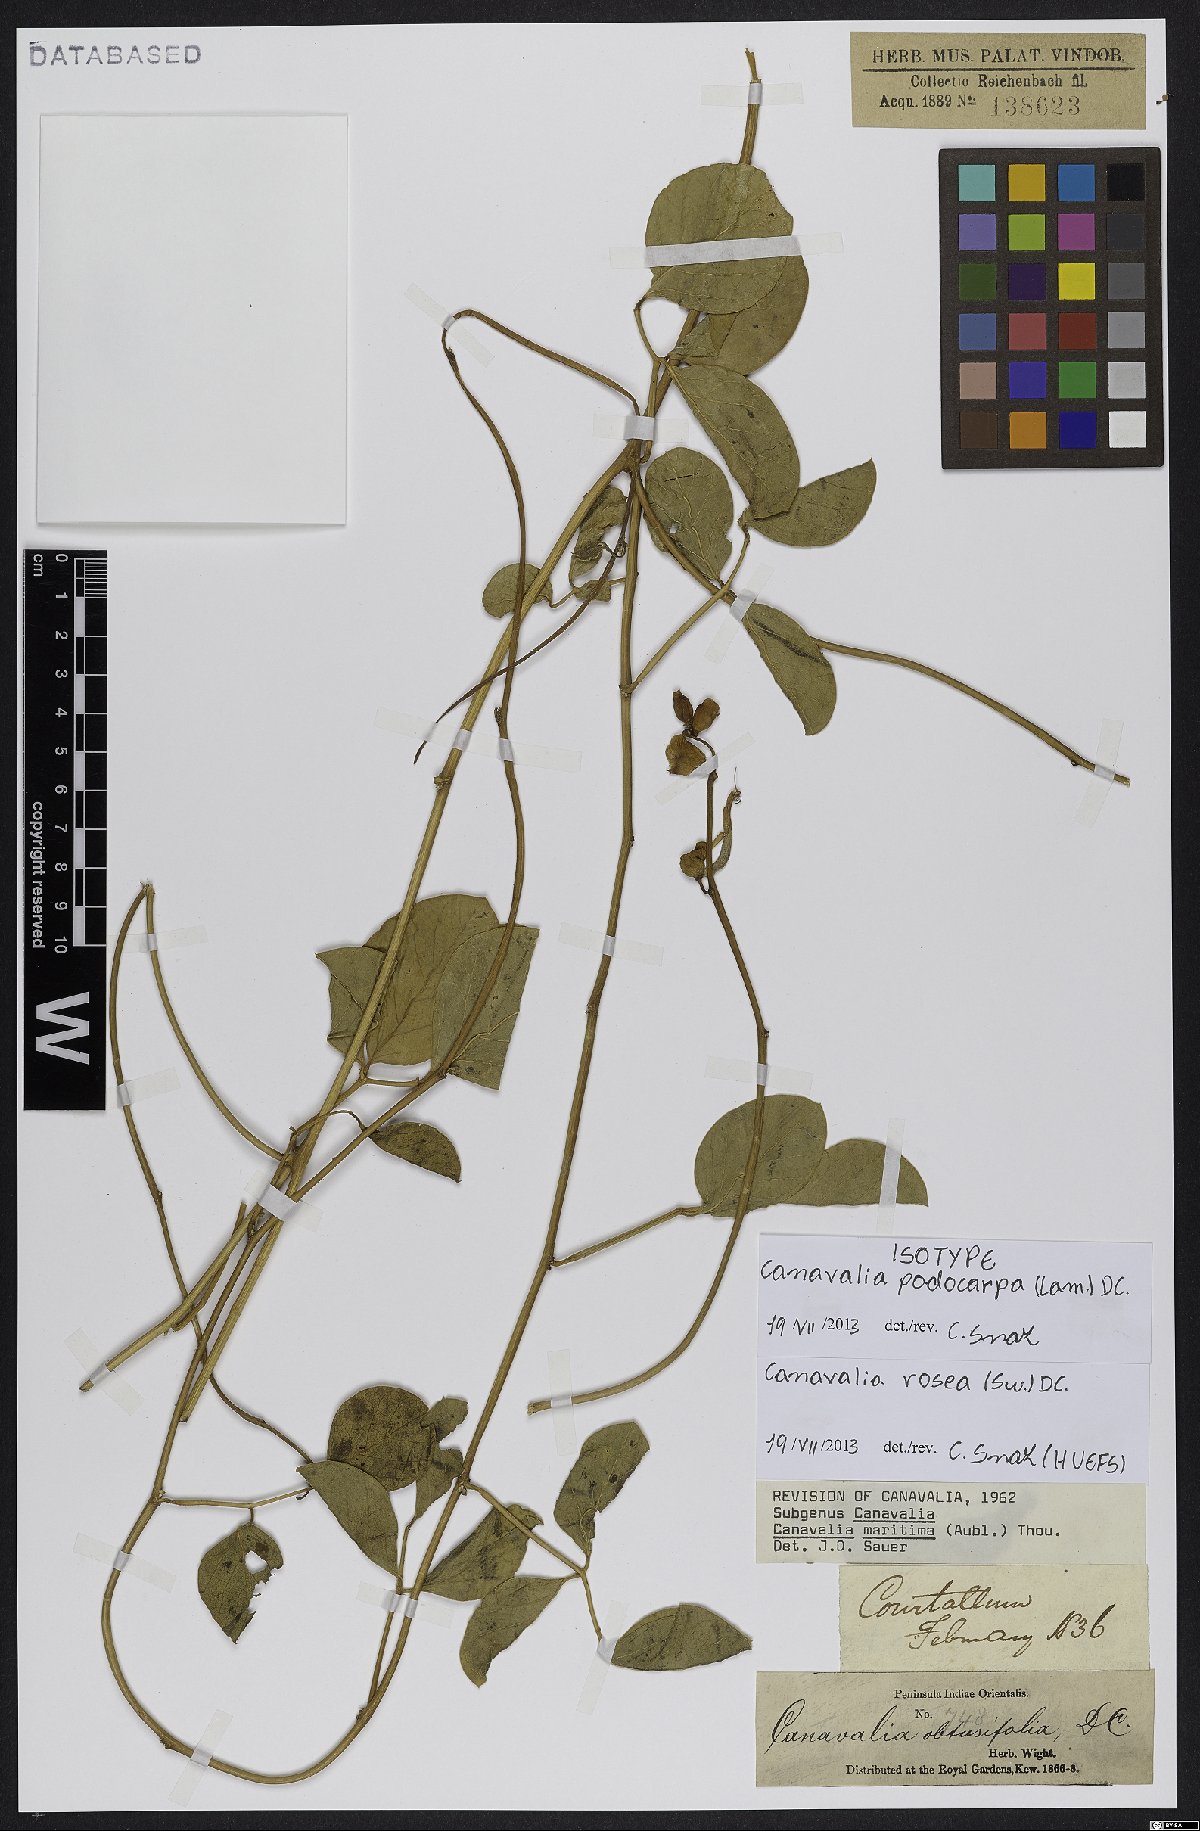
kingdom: Plantae
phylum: Tracheophyta
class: Magnoliopsida
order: Fabales
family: Fabaceae
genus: Canavalia
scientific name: Canavalia rosea
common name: Beach-bean
